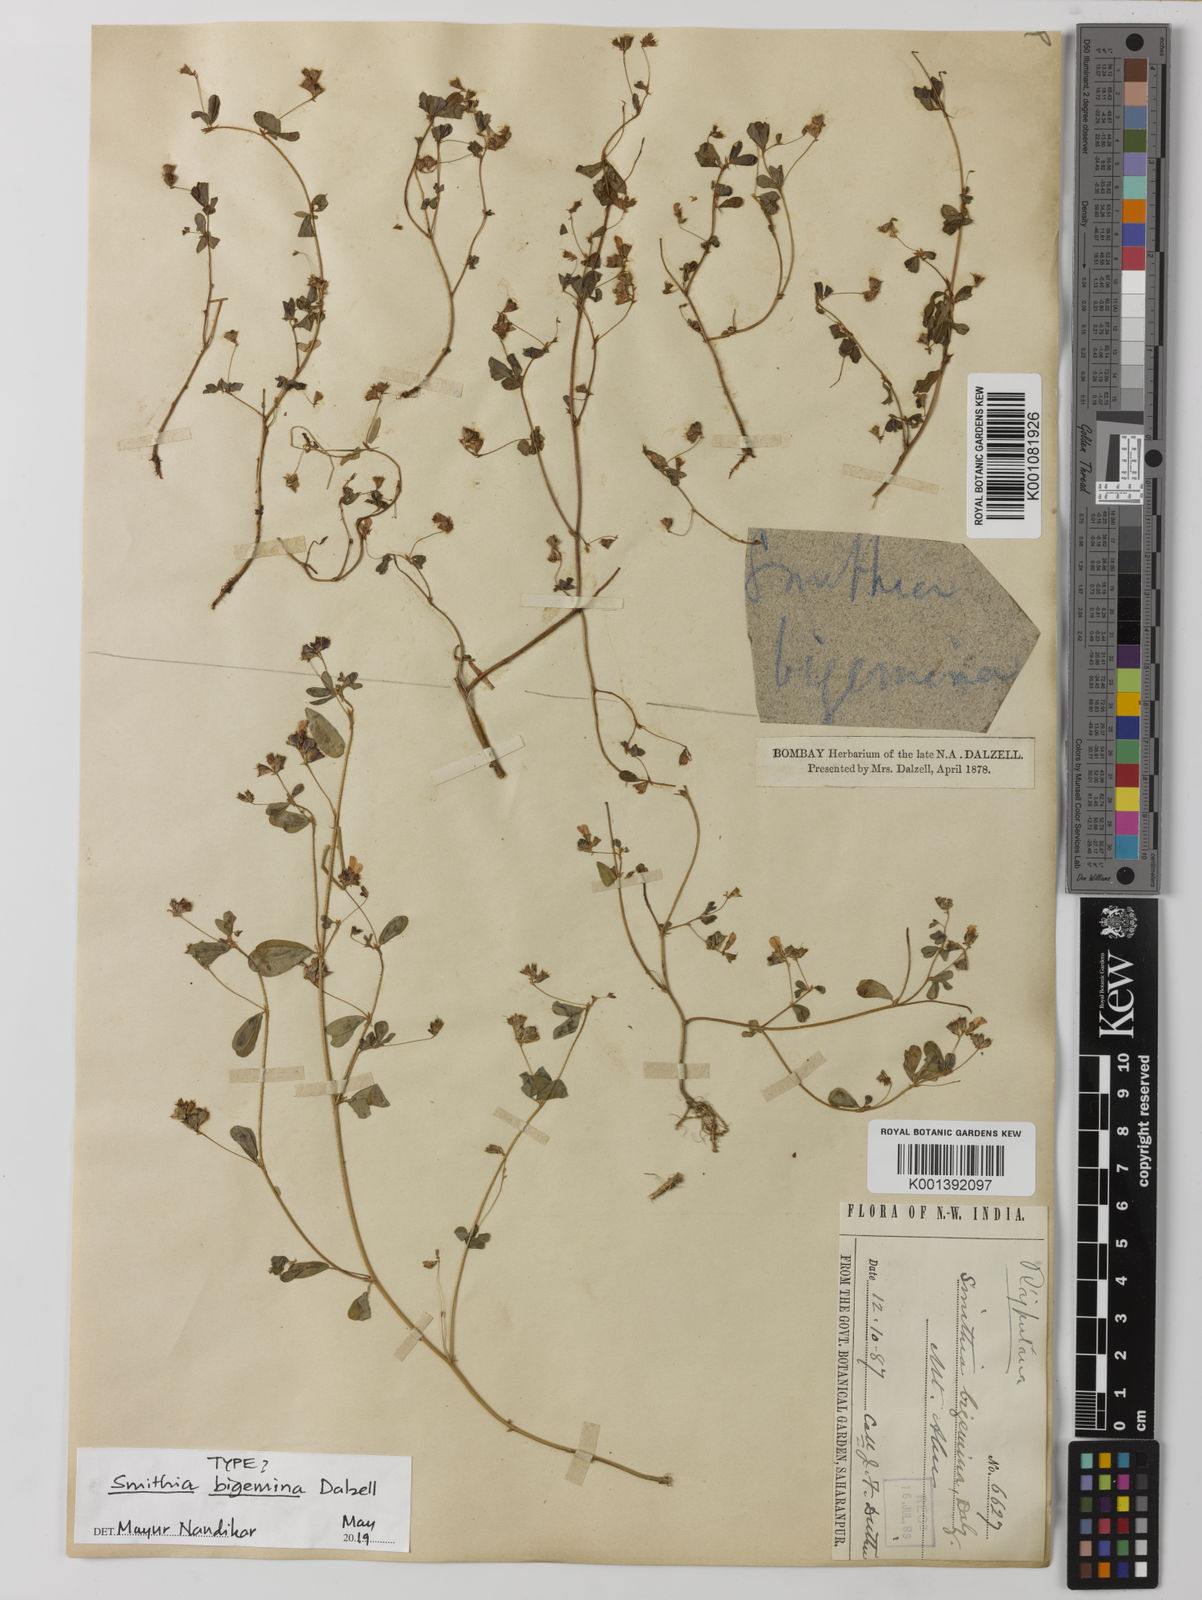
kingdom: Plantae
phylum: Tracheophyta
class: Magnoliopsida
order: Fabales
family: Fabaceae
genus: Smithia
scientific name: Smithia bigemina
